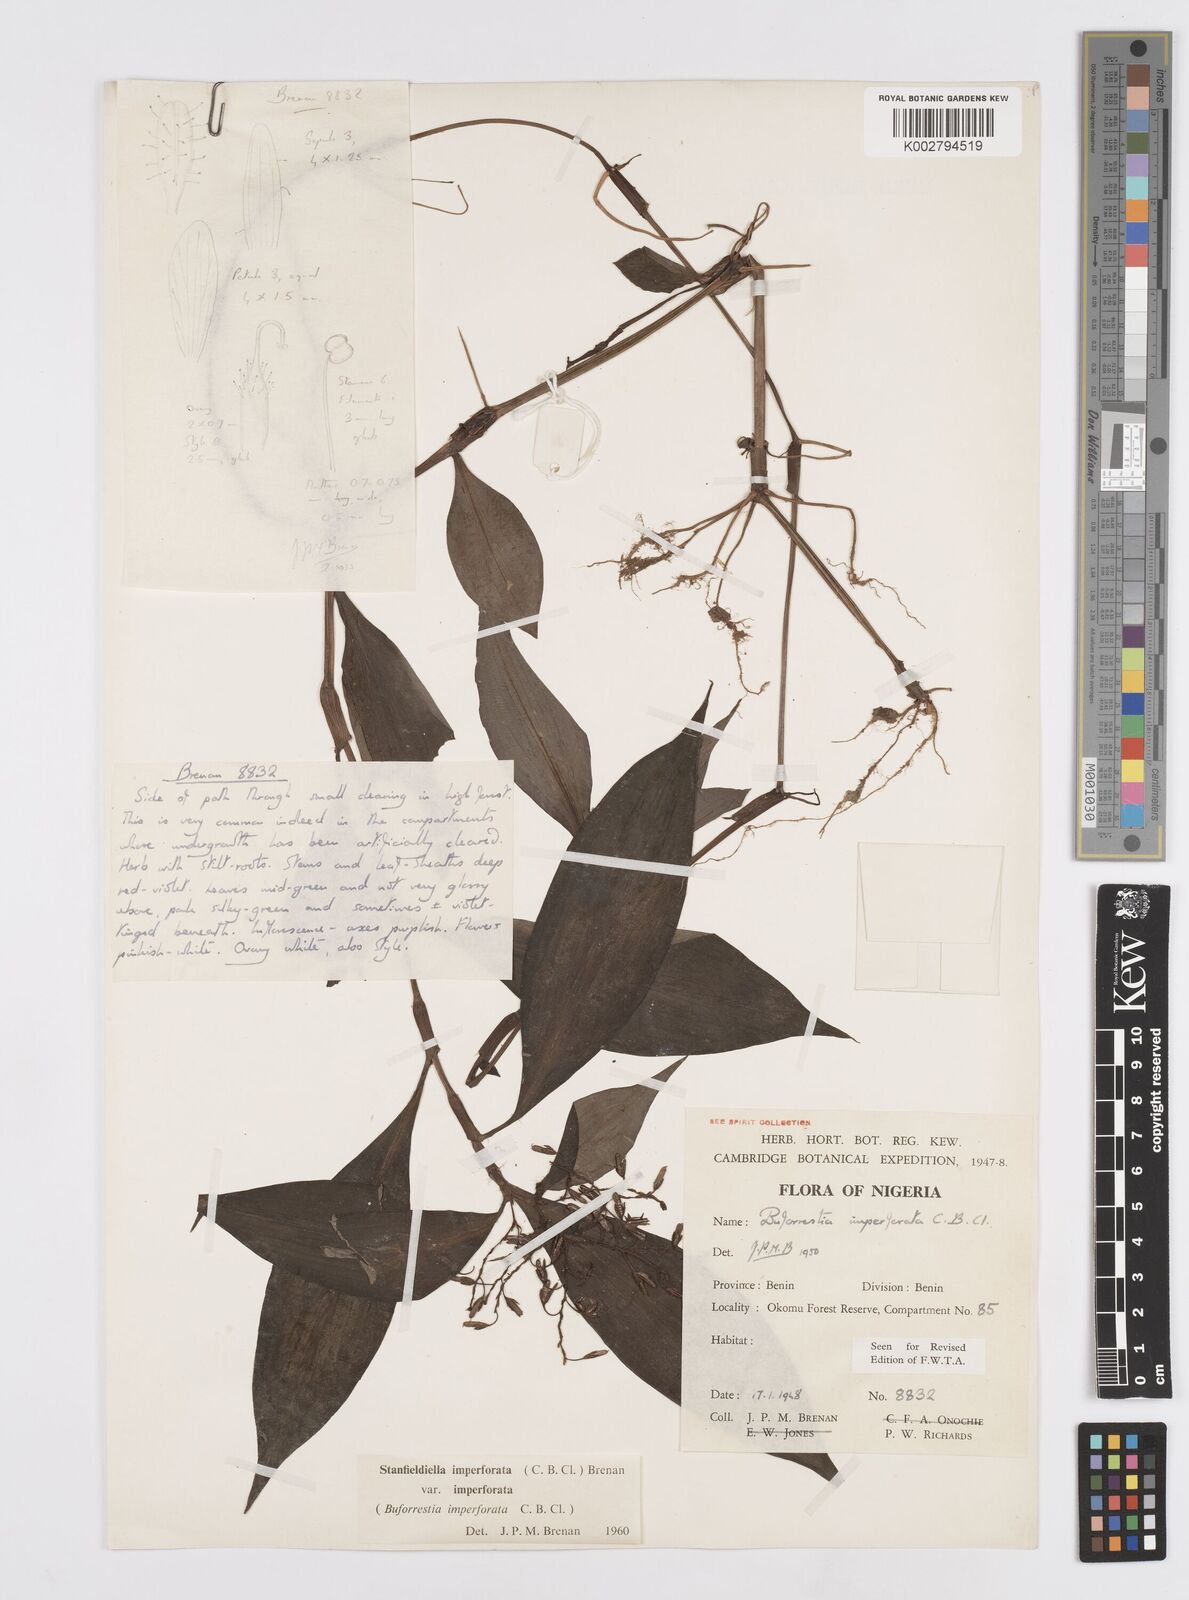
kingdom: Plantae
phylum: Tracheophyta
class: Liliopsida
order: Commelinales
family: Commelinaceae
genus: Stanfieldiella
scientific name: Stanfieldiella imperforata
